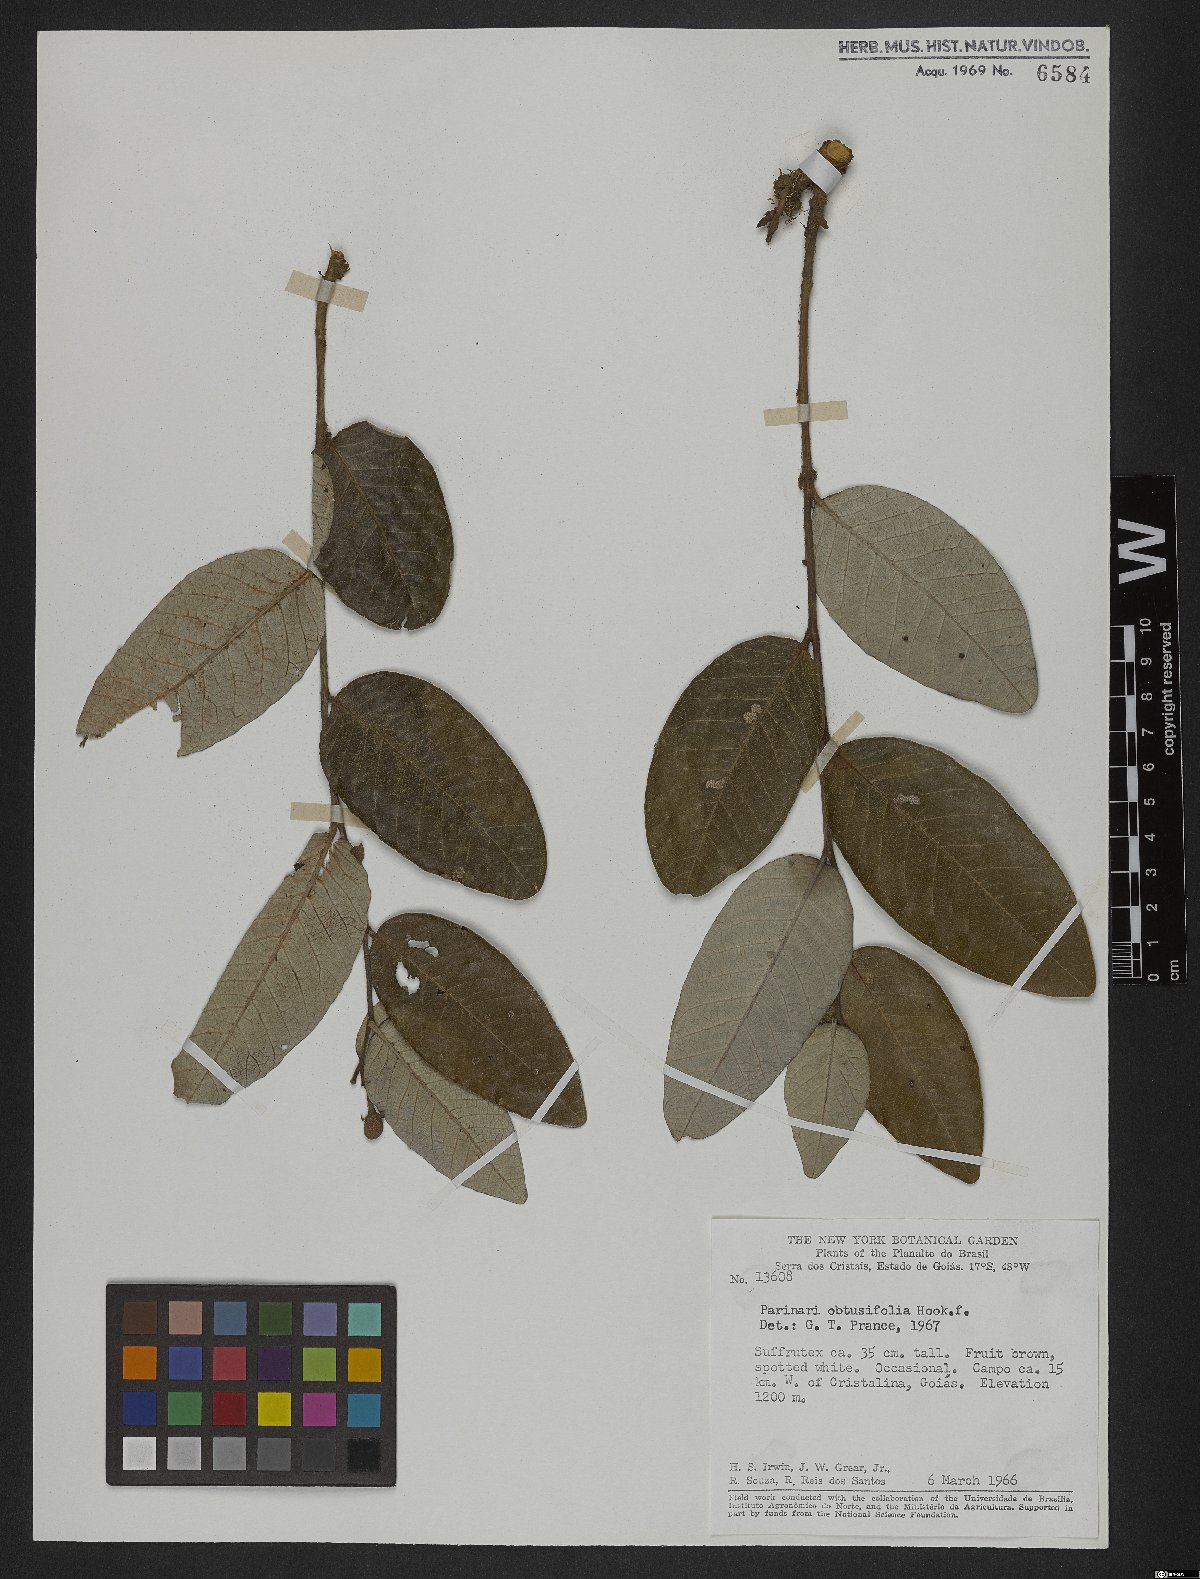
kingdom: Plantae
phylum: Tracheophyta
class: Magnoliopsida
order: Malpighiales
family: Chrysobalanaceae
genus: Parinari
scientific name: Parinari obtusifolium
